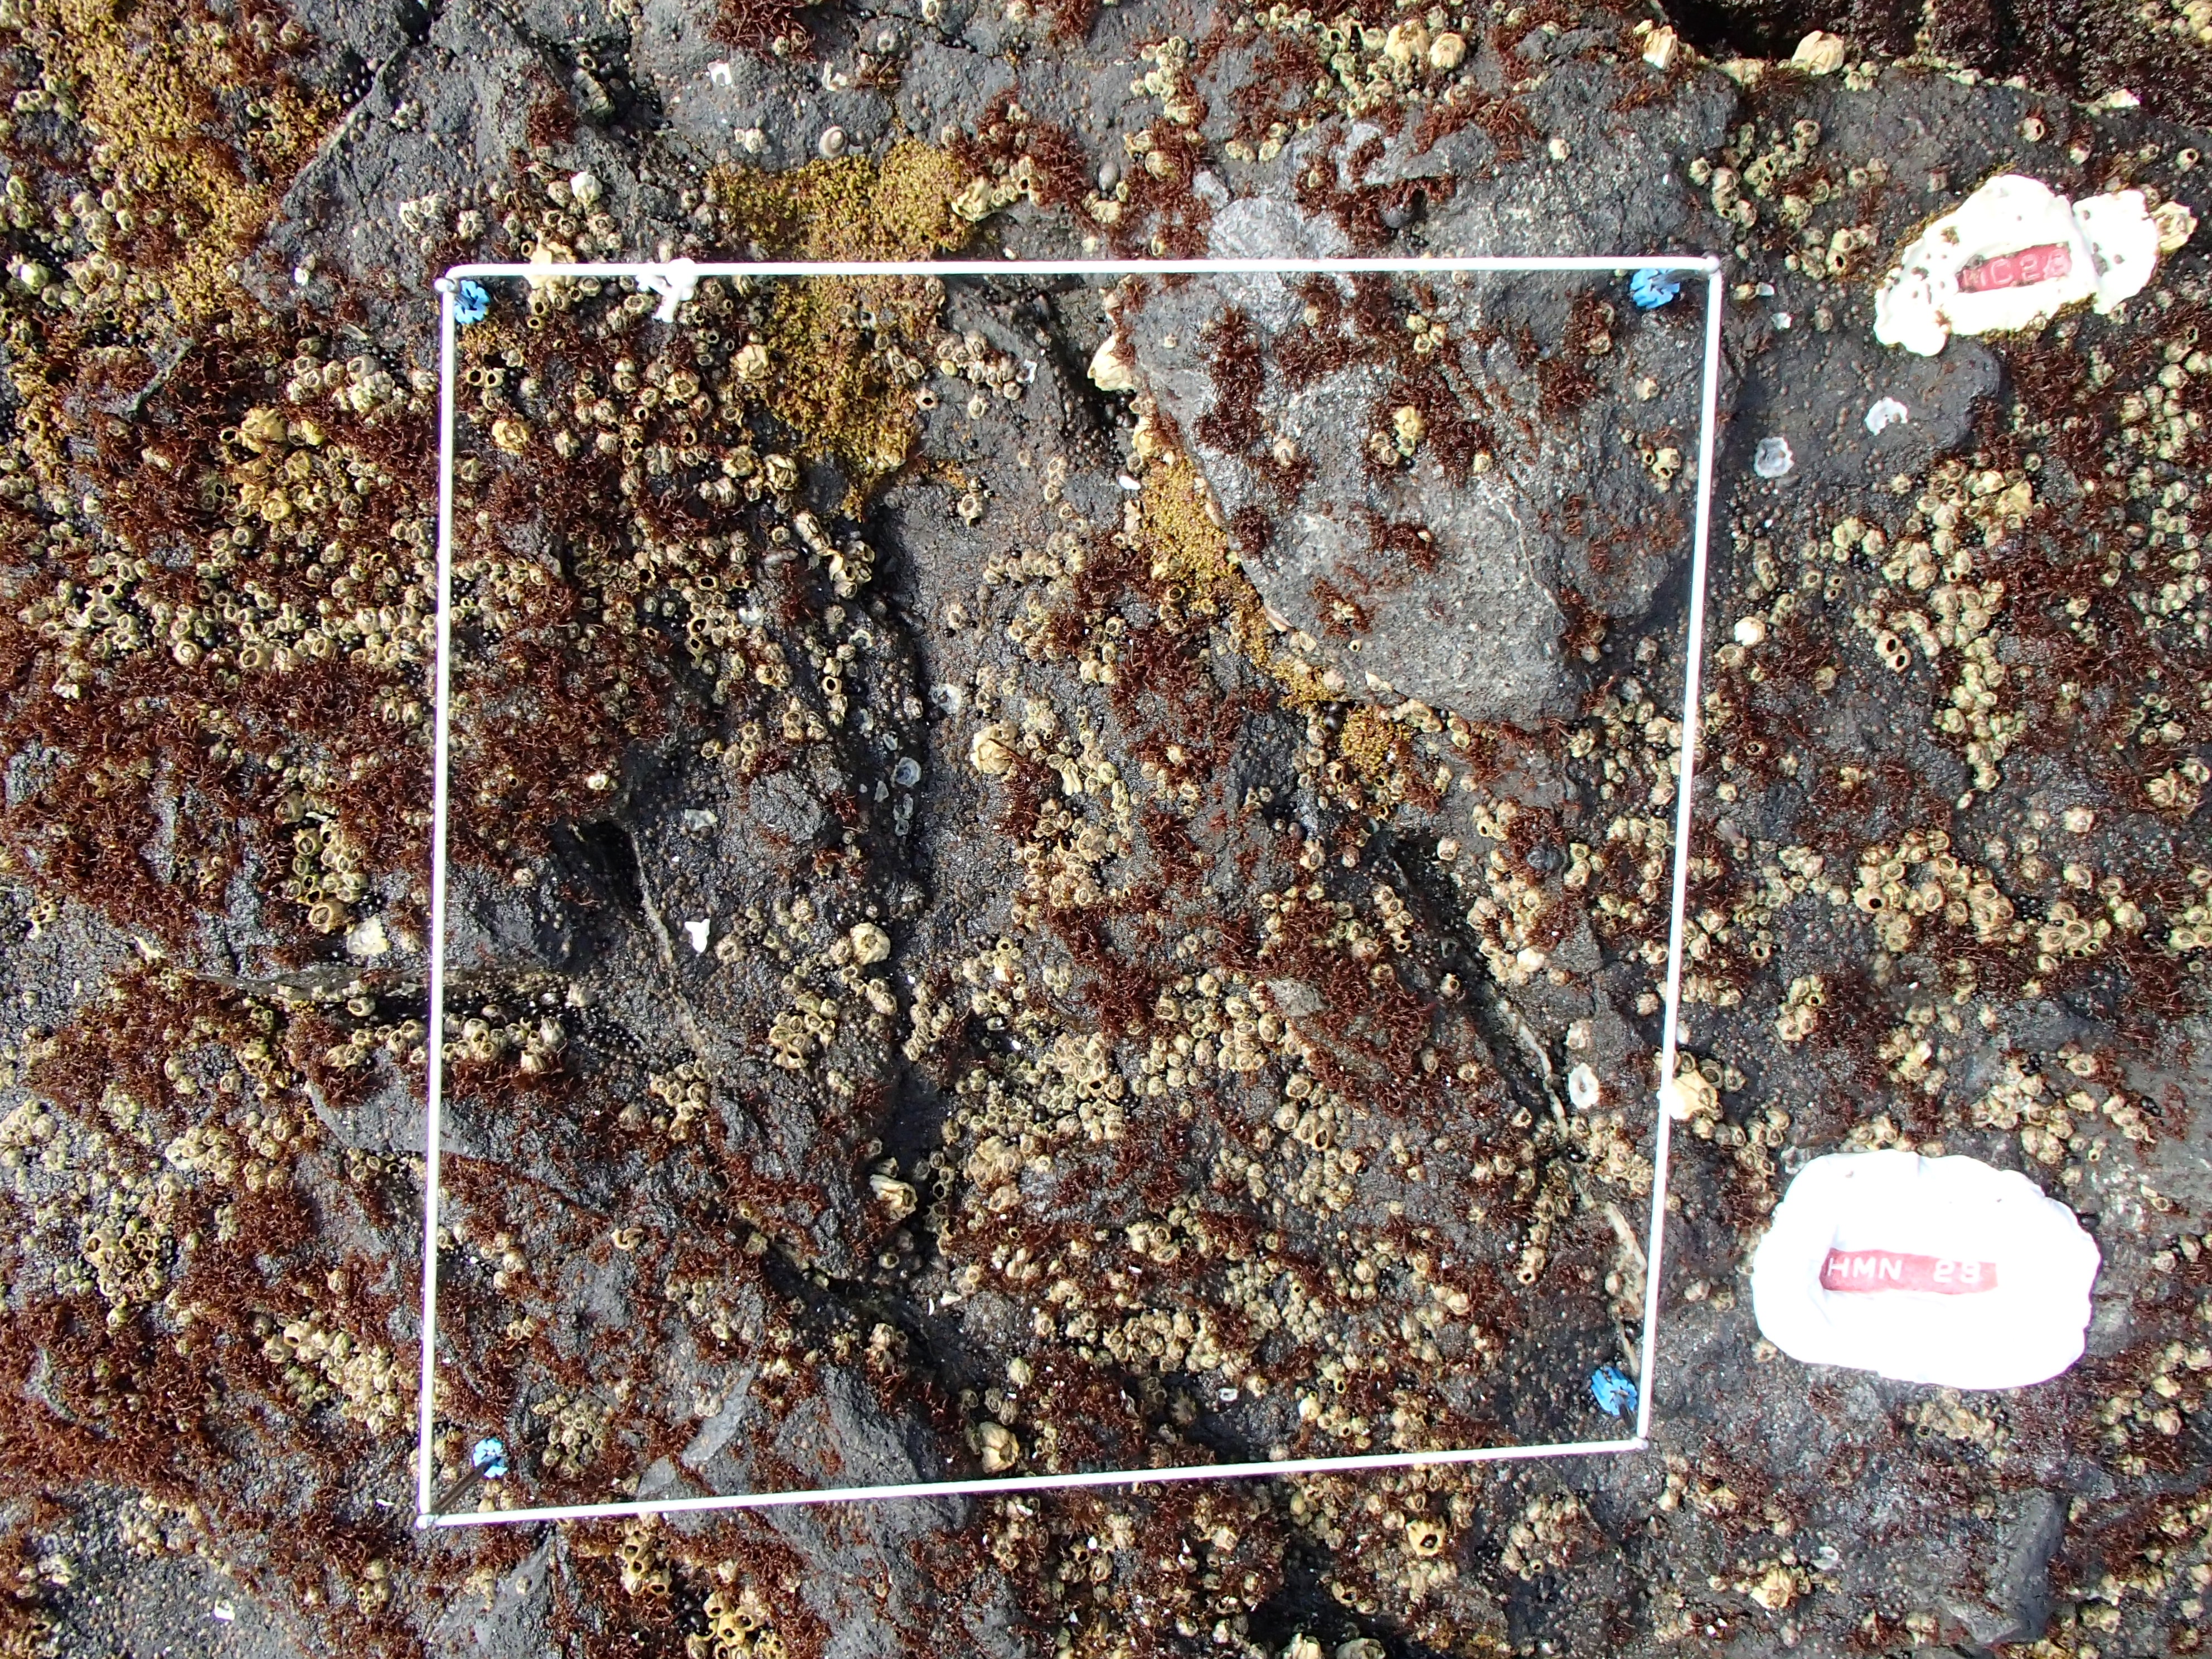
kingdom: Plantae
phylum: Rhodophyta
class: Florideophyceae
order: Gigartinales
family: Endocladiaceae
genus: Gloiopeltis
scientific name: Gloiopeltis furcata
